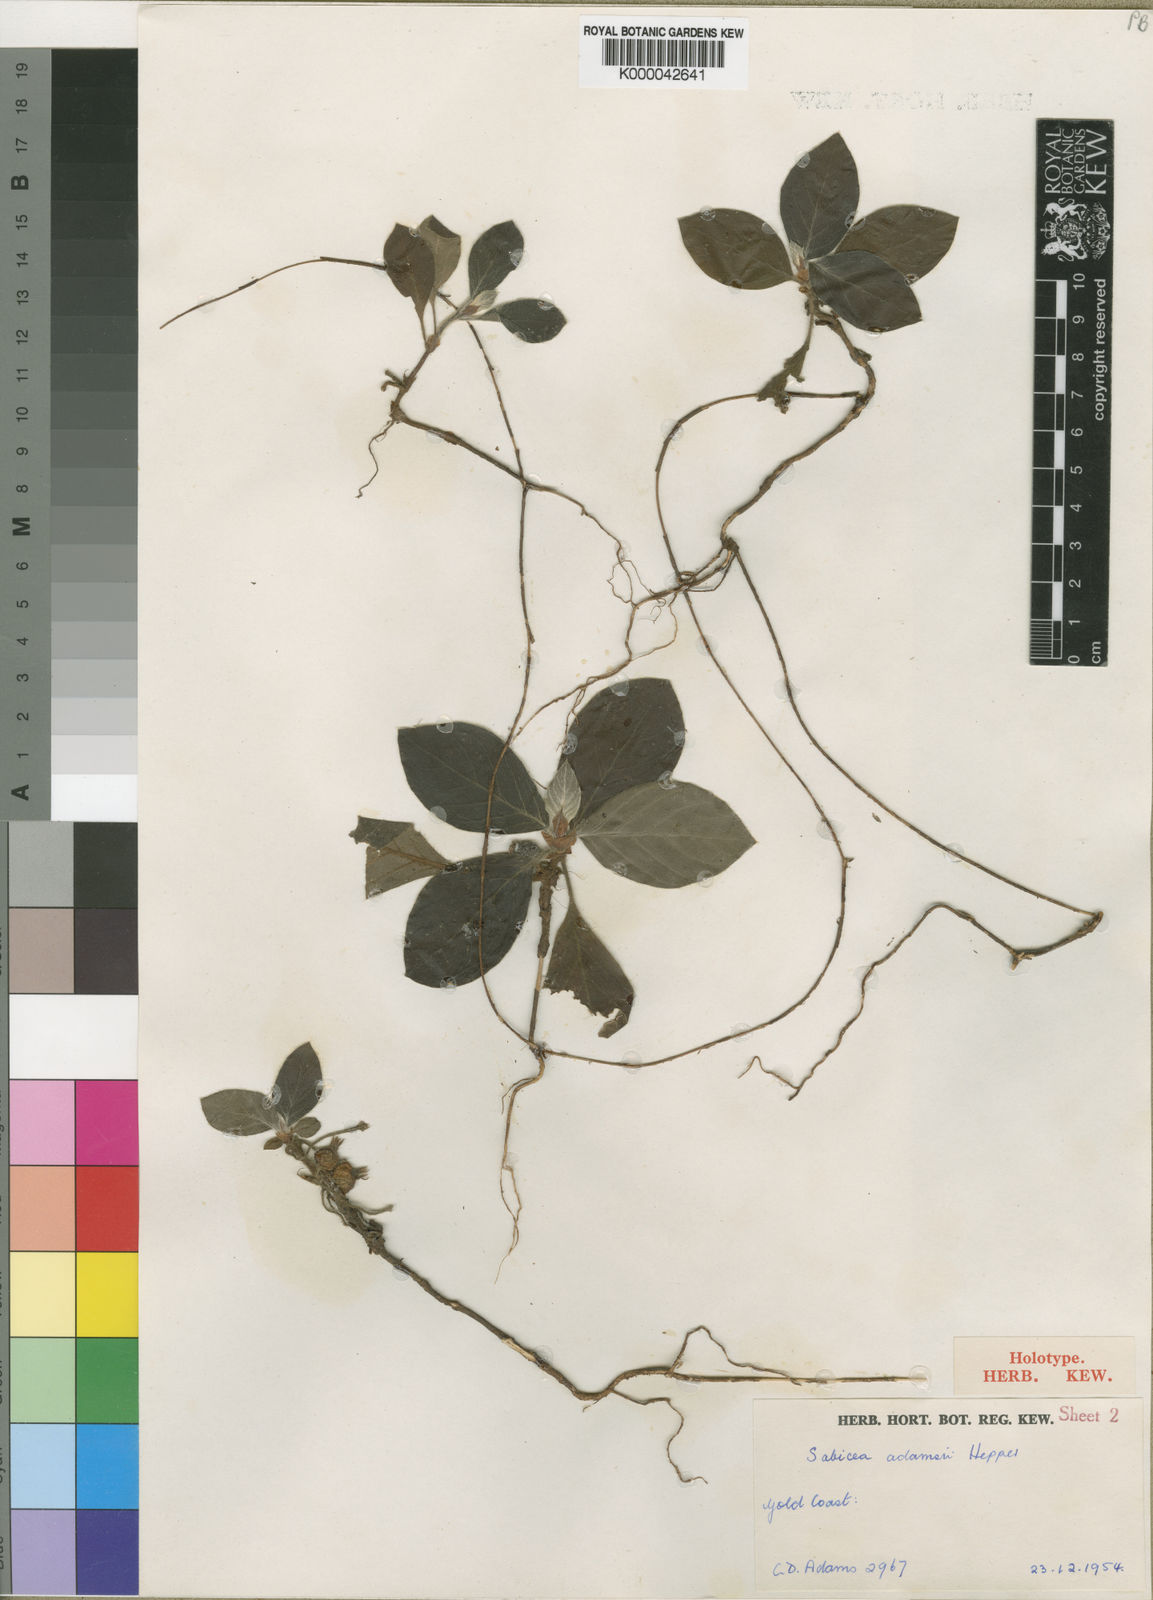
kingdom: Plantae
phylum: Tracheophyta
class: Magnoliopsida
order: Gentianales
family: Rubiaceae
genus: Bertiera
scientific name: Bertiera
